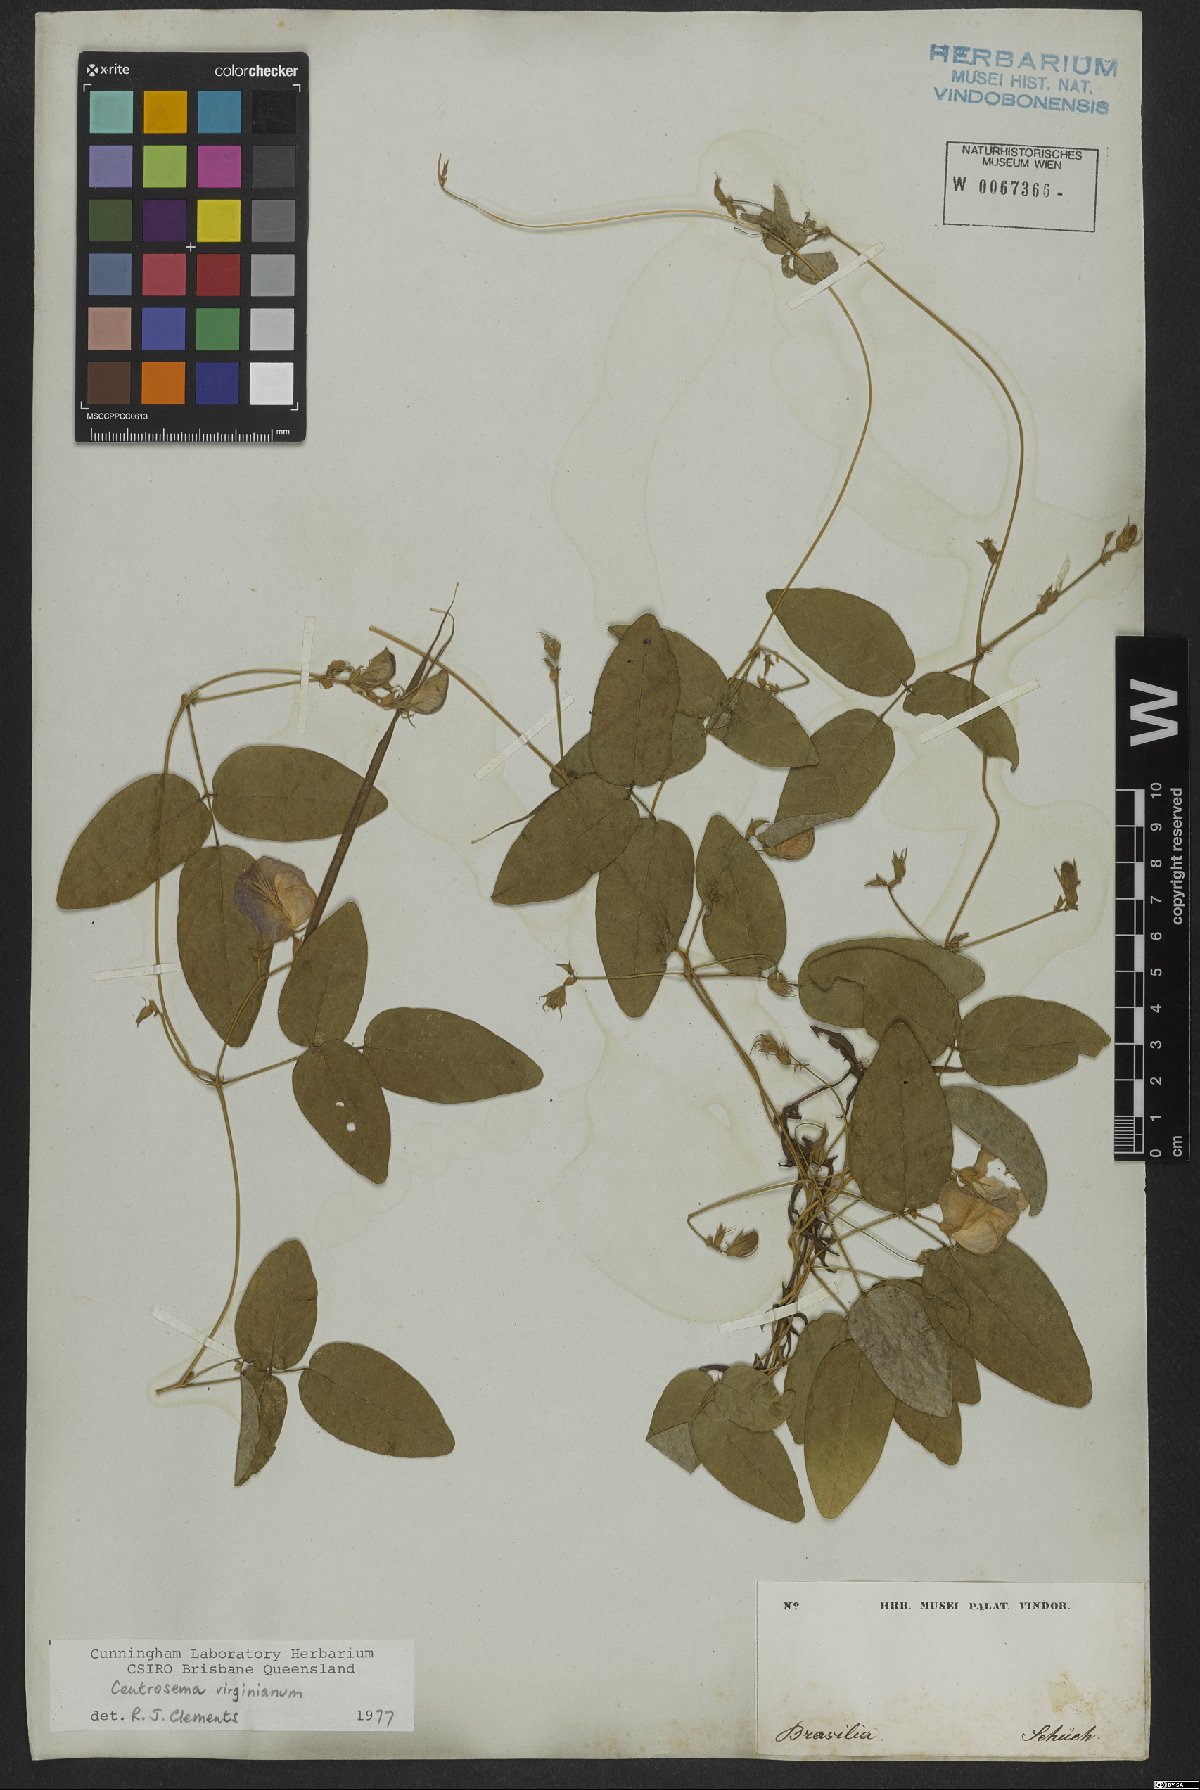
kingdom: Plantae
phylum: Tracheophyta
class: Magnoliopsida
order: Fabales
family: Fabaceae
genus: Centrosema
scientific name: Centrosema virginianum
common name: Butterfly-pea
